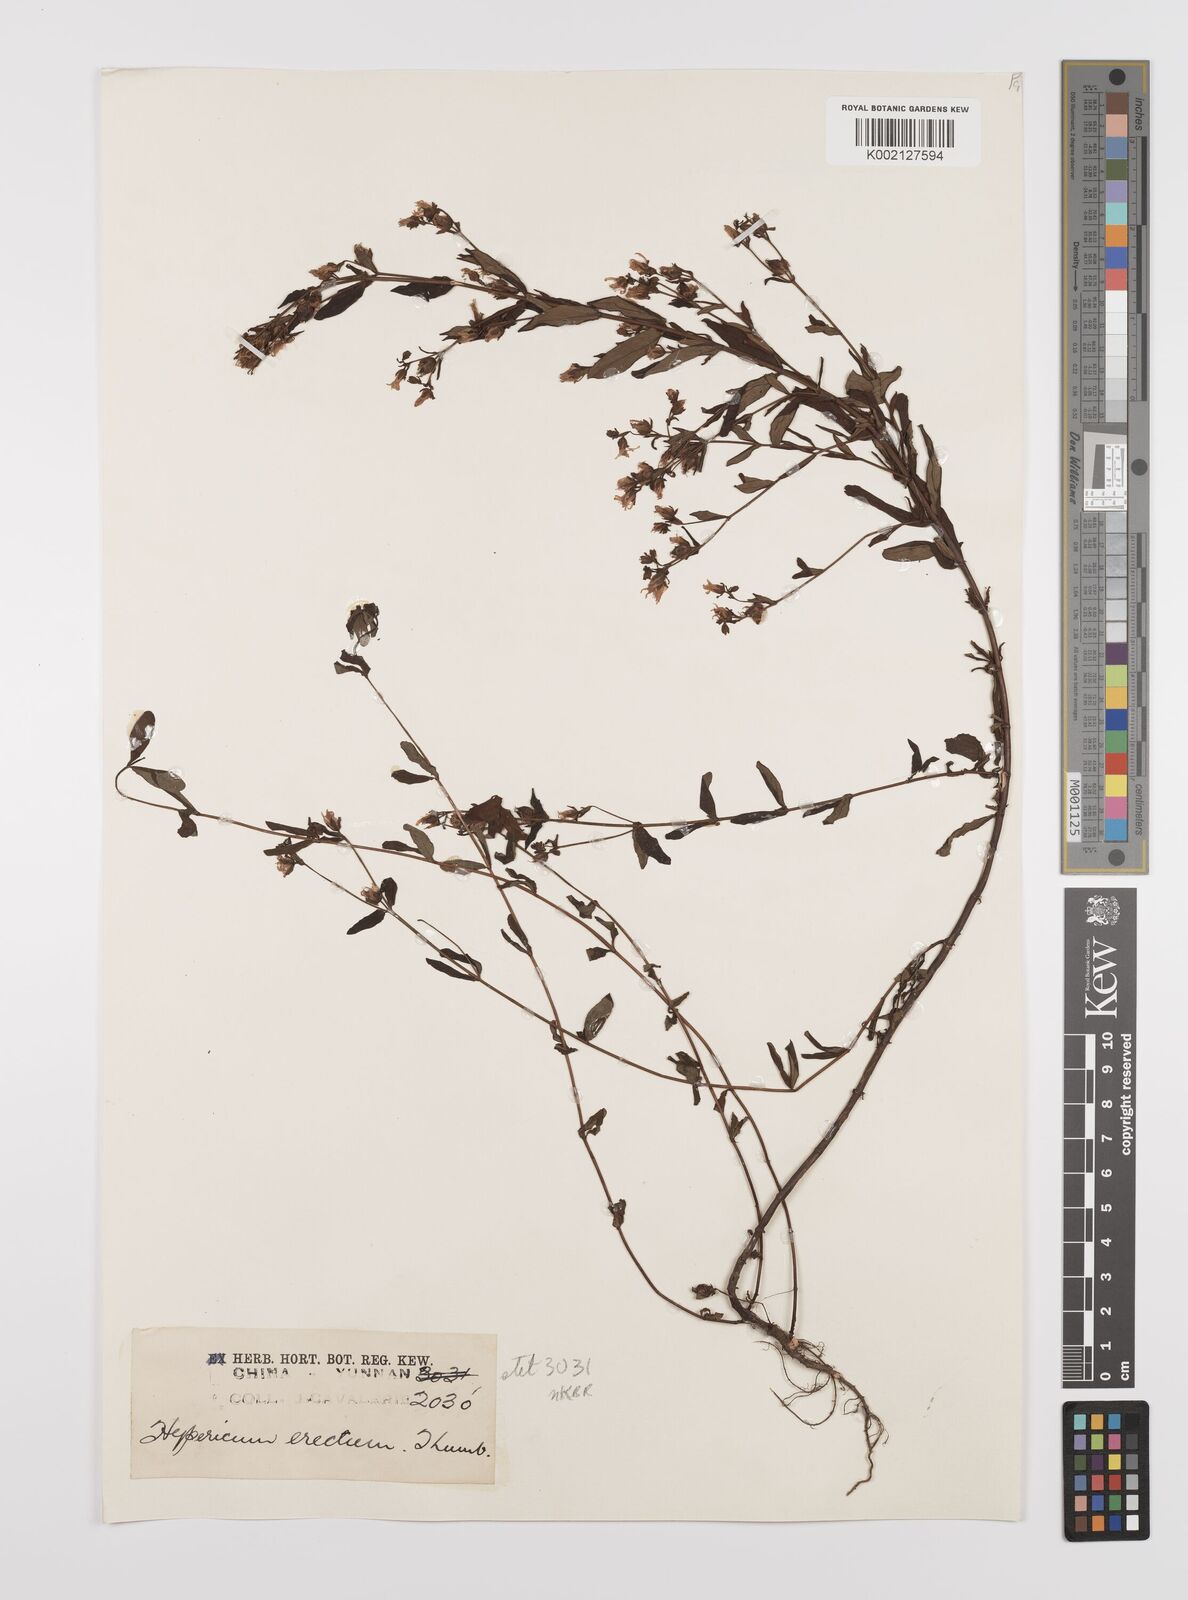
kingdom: Plantae
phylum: Tracheophyta
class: Magnoliopsida
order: Malpighiales
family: Hypericaceae
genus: Hypericum
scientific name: Hypericum petiolulatum
